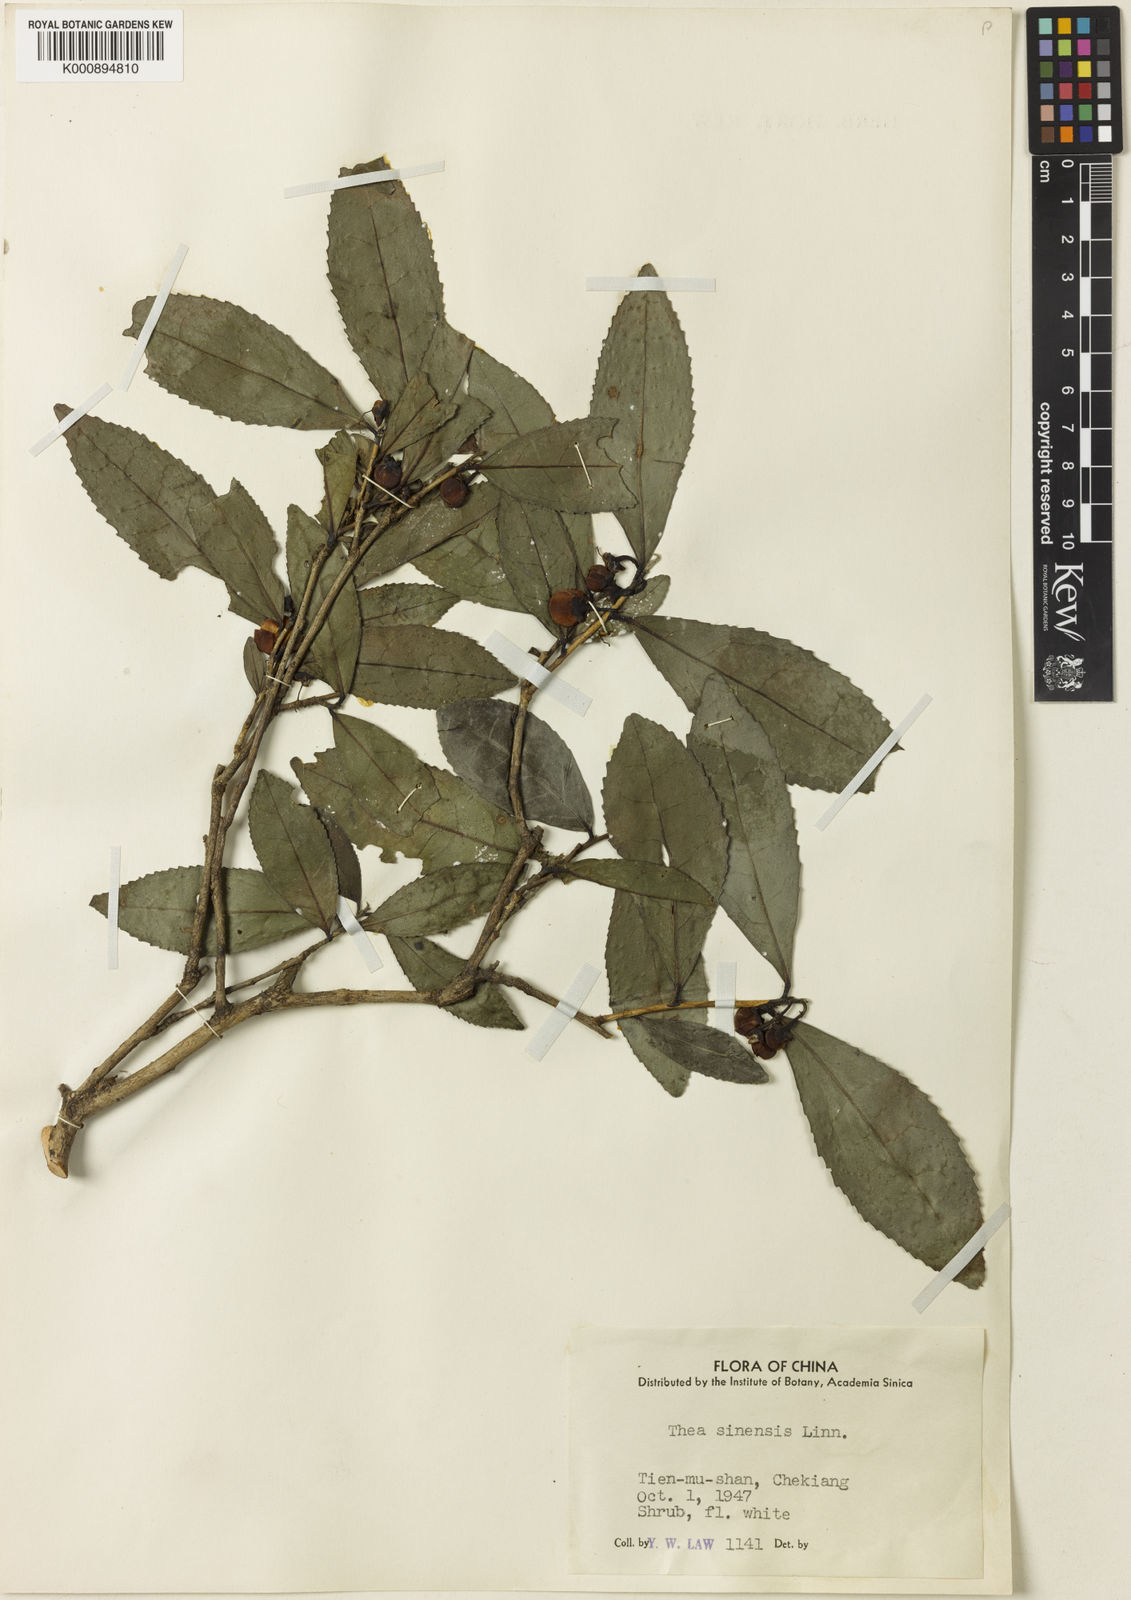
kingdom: Plantae
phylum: Tracheophyta
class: Magnoliopsida
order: Ericales
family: Theaceae
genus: Camellia
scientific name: Camellia sinensis
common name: Tea
